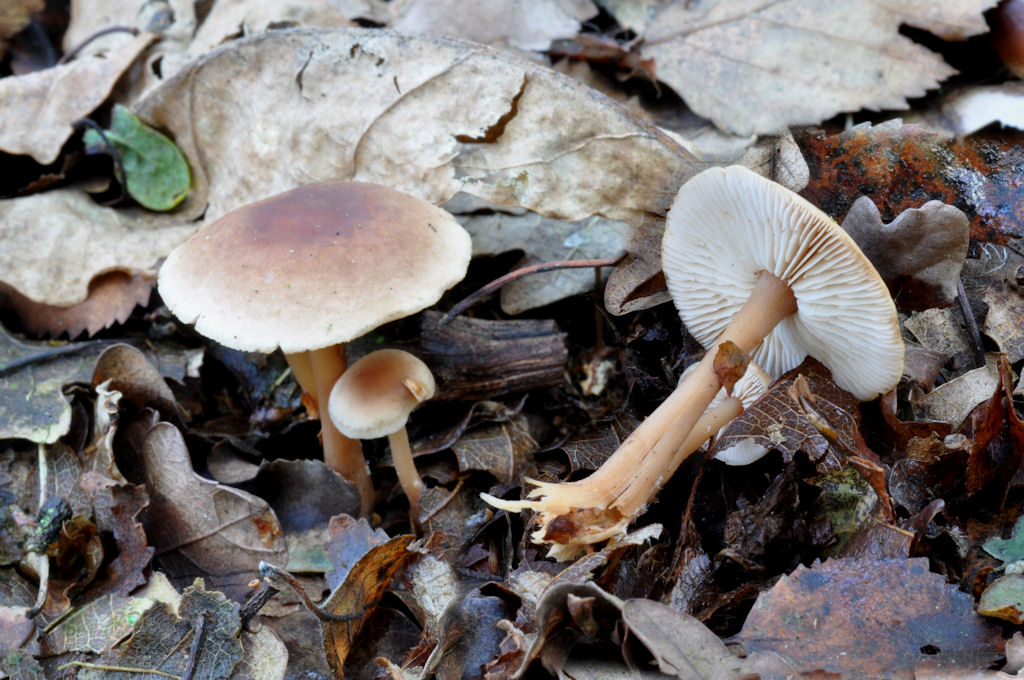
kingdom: Fungi
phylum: Basidiomycota
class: Agaricomycetes
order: Agaricales
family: Omphalotaceae
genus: Gymnopus
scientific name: Gymnopus dryophilus
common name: løv-fladhat
